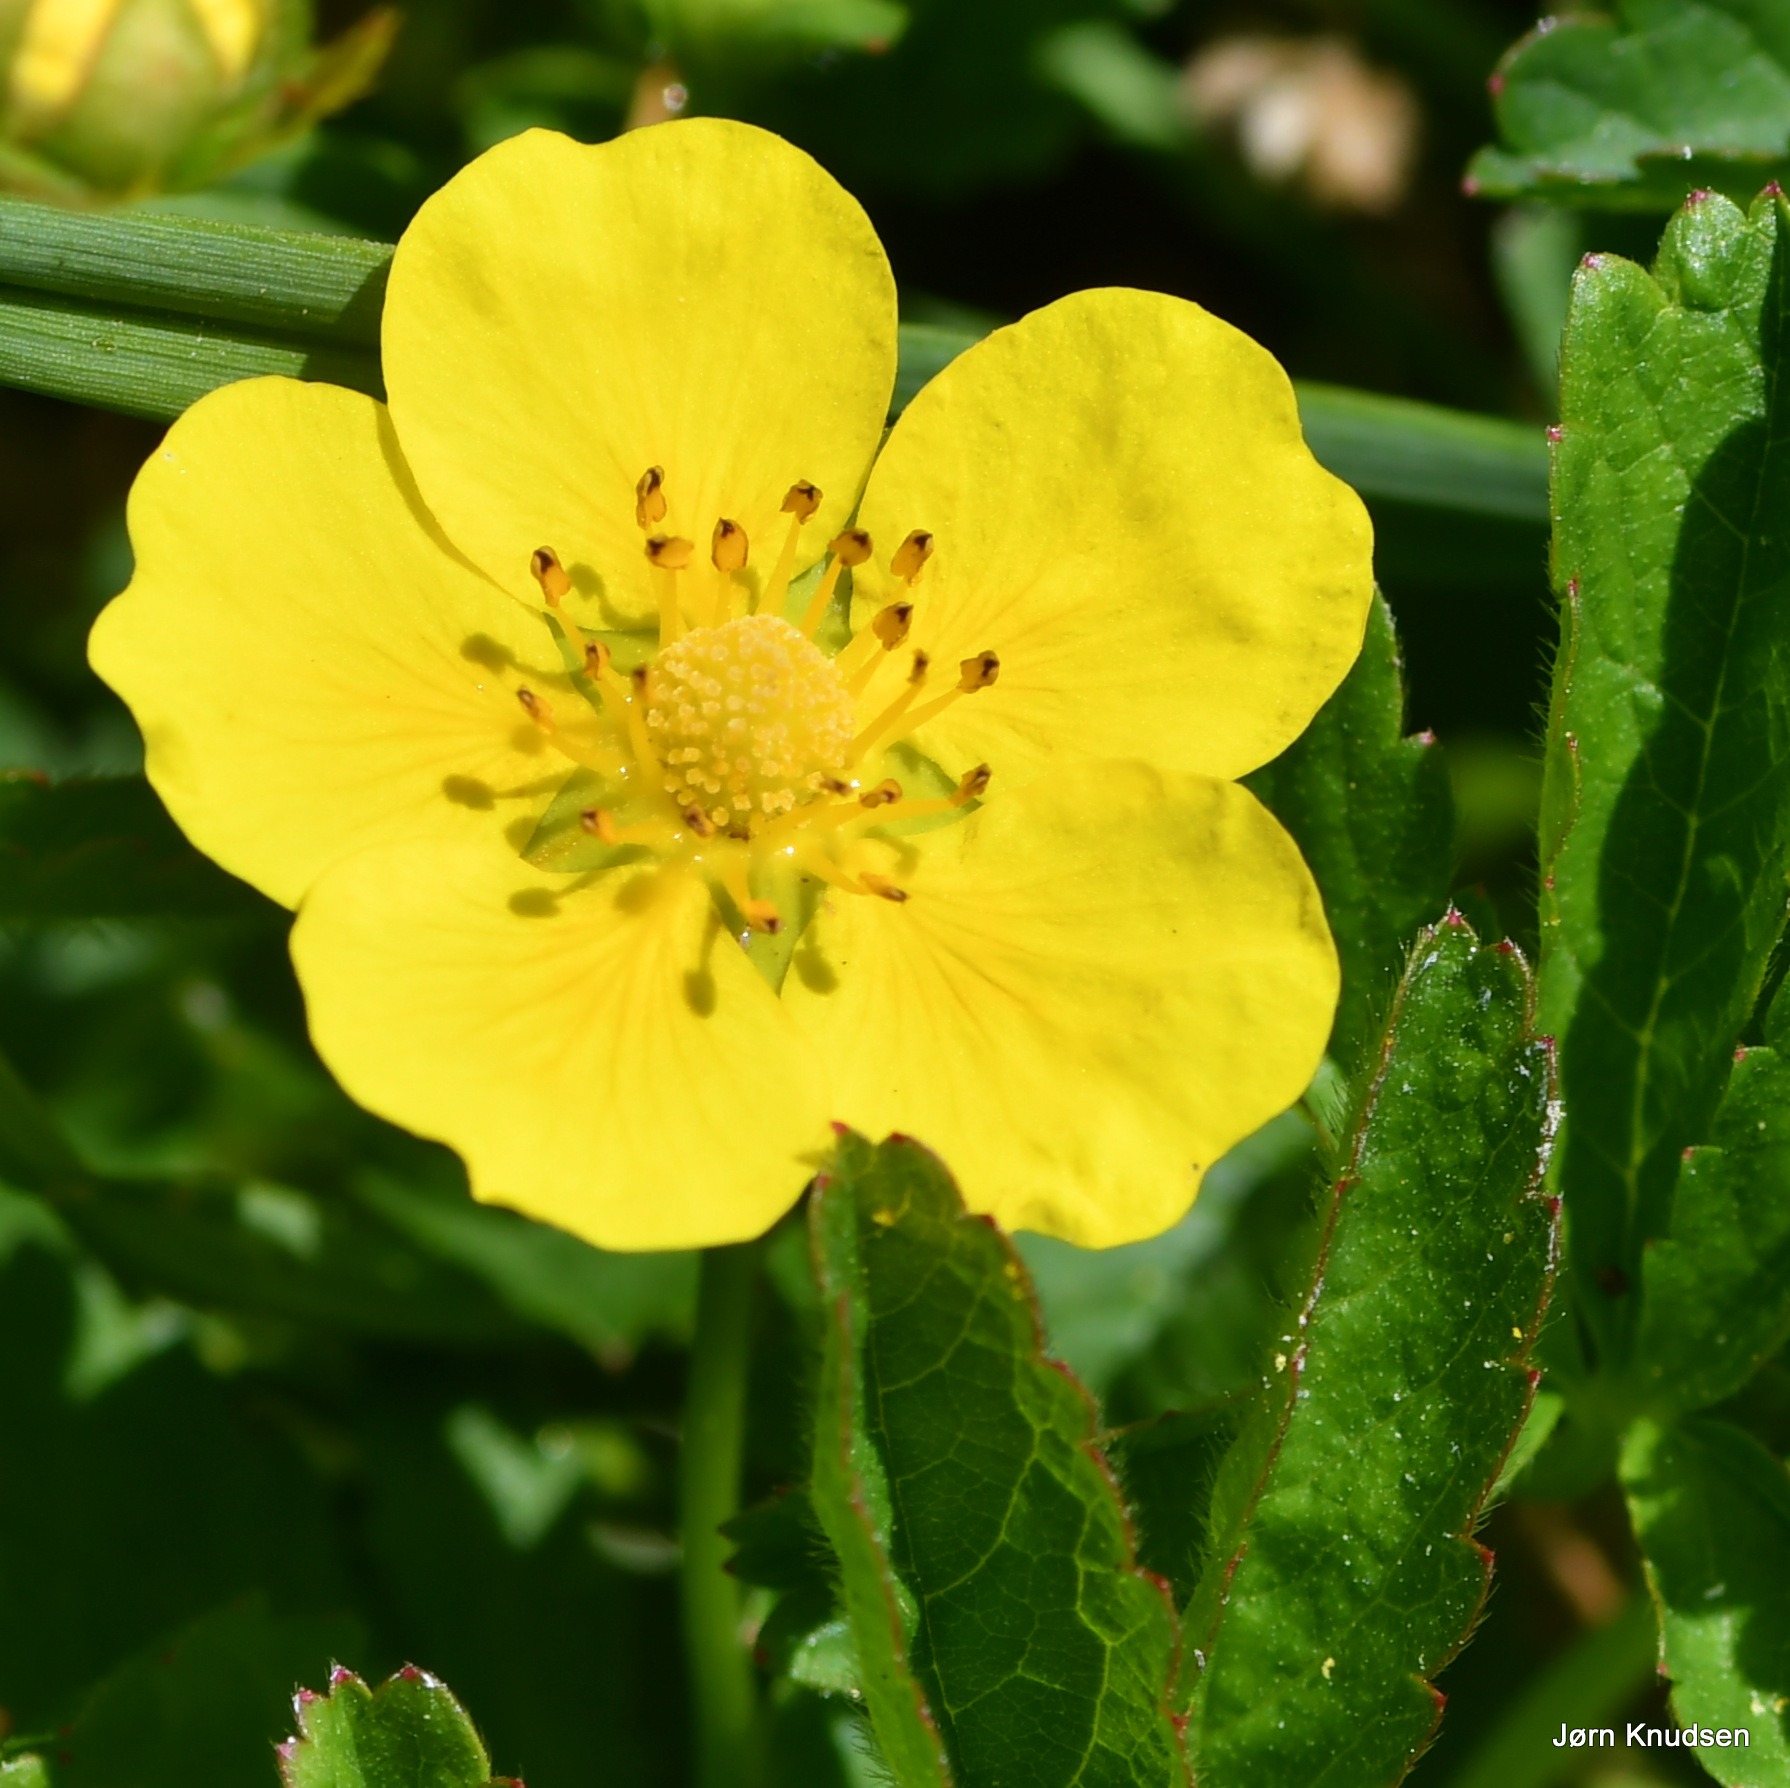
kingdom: Plantae
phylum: Tracheophyta
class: Magnoliopsida
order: Rosales
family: Rosaceae
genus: Potentilla
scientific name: Potentilla reptans
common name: Krybende potentil
